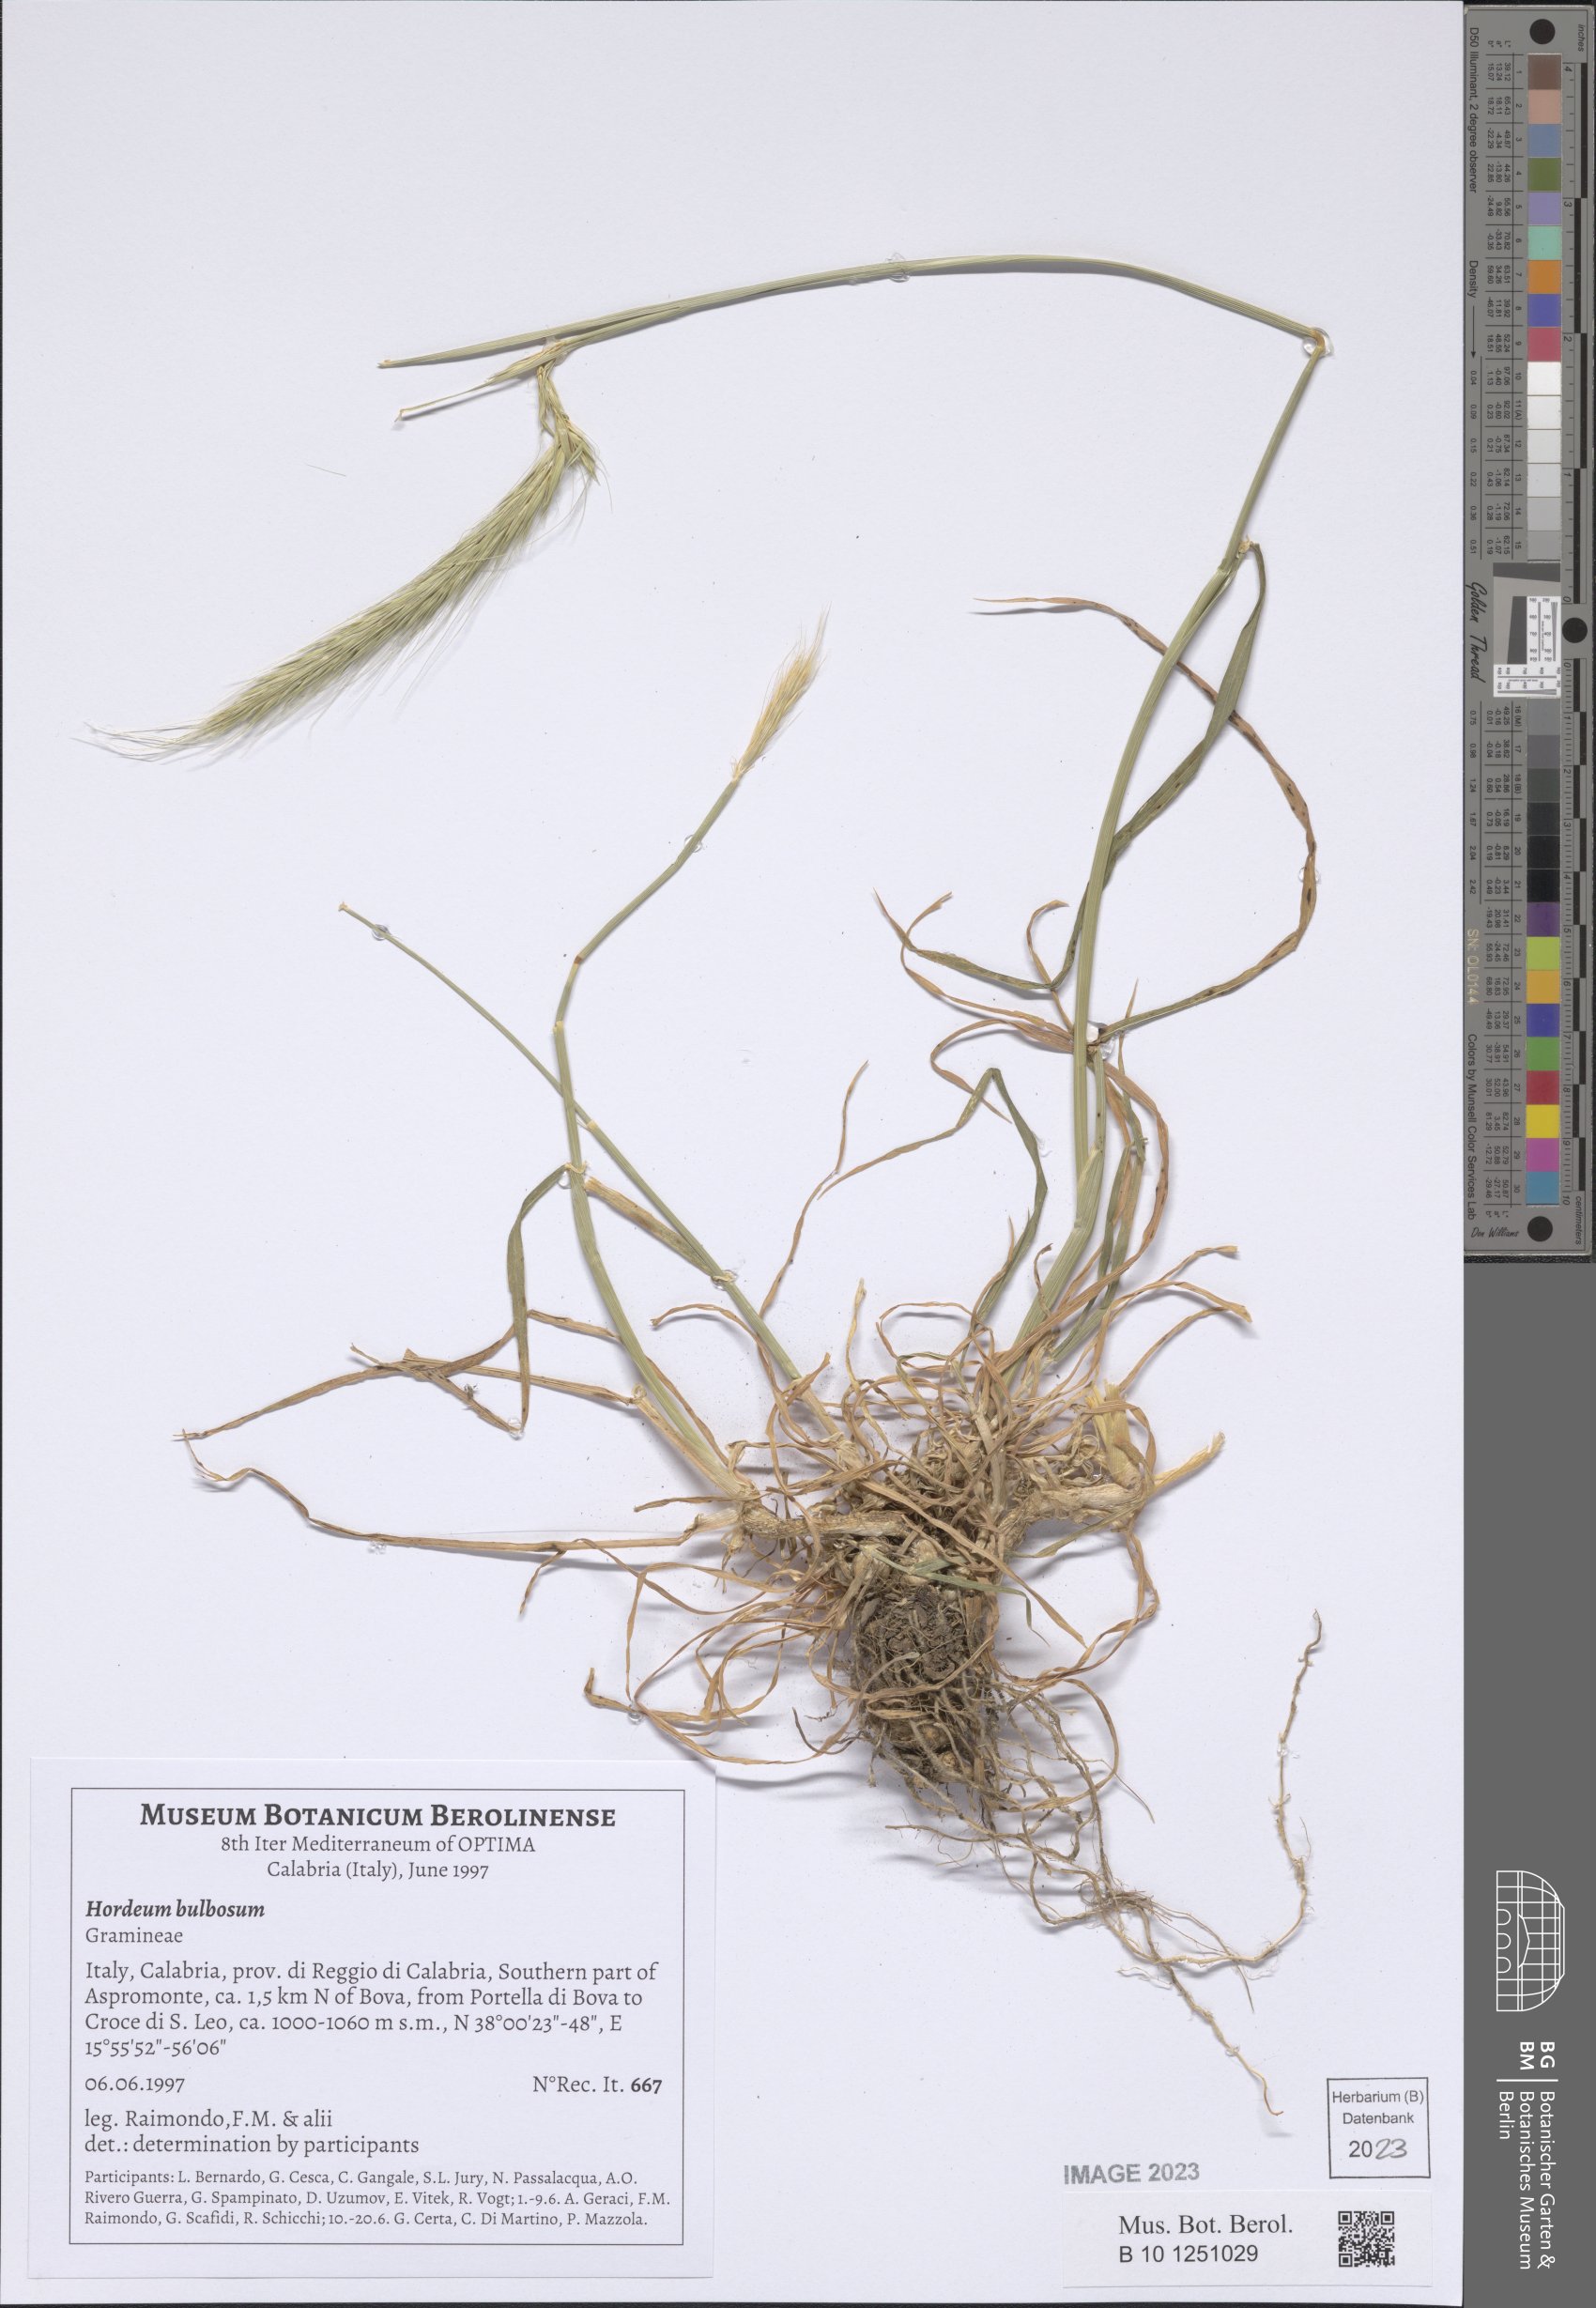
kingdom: Plantae
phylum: Tracheophyta
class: Liliopsida
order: Poales
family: Poaceae
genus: Hordeum
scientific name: Hordeum bulbosum
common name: Bulbous barley
